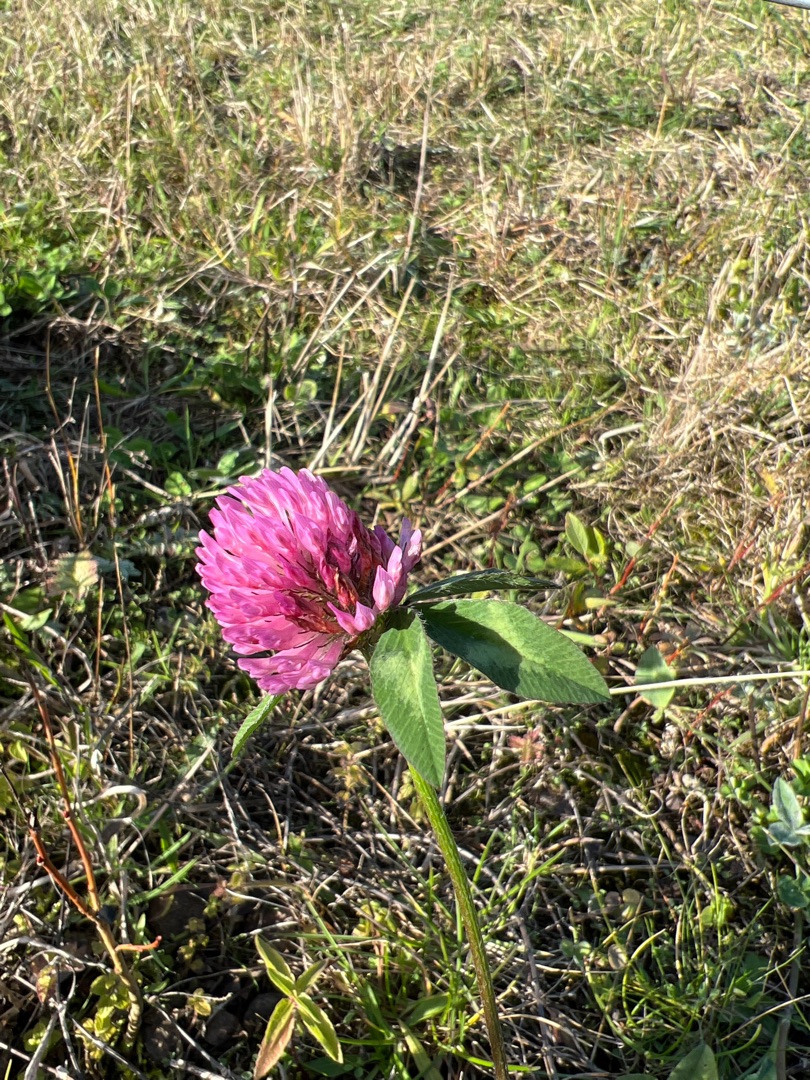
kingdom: Plantae
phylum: Tracheophyta
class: Magnoliopsida
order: Fabales
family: Fabaceae
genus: Trifolium
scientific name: Trifolium pratense
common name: Rød-kløver
